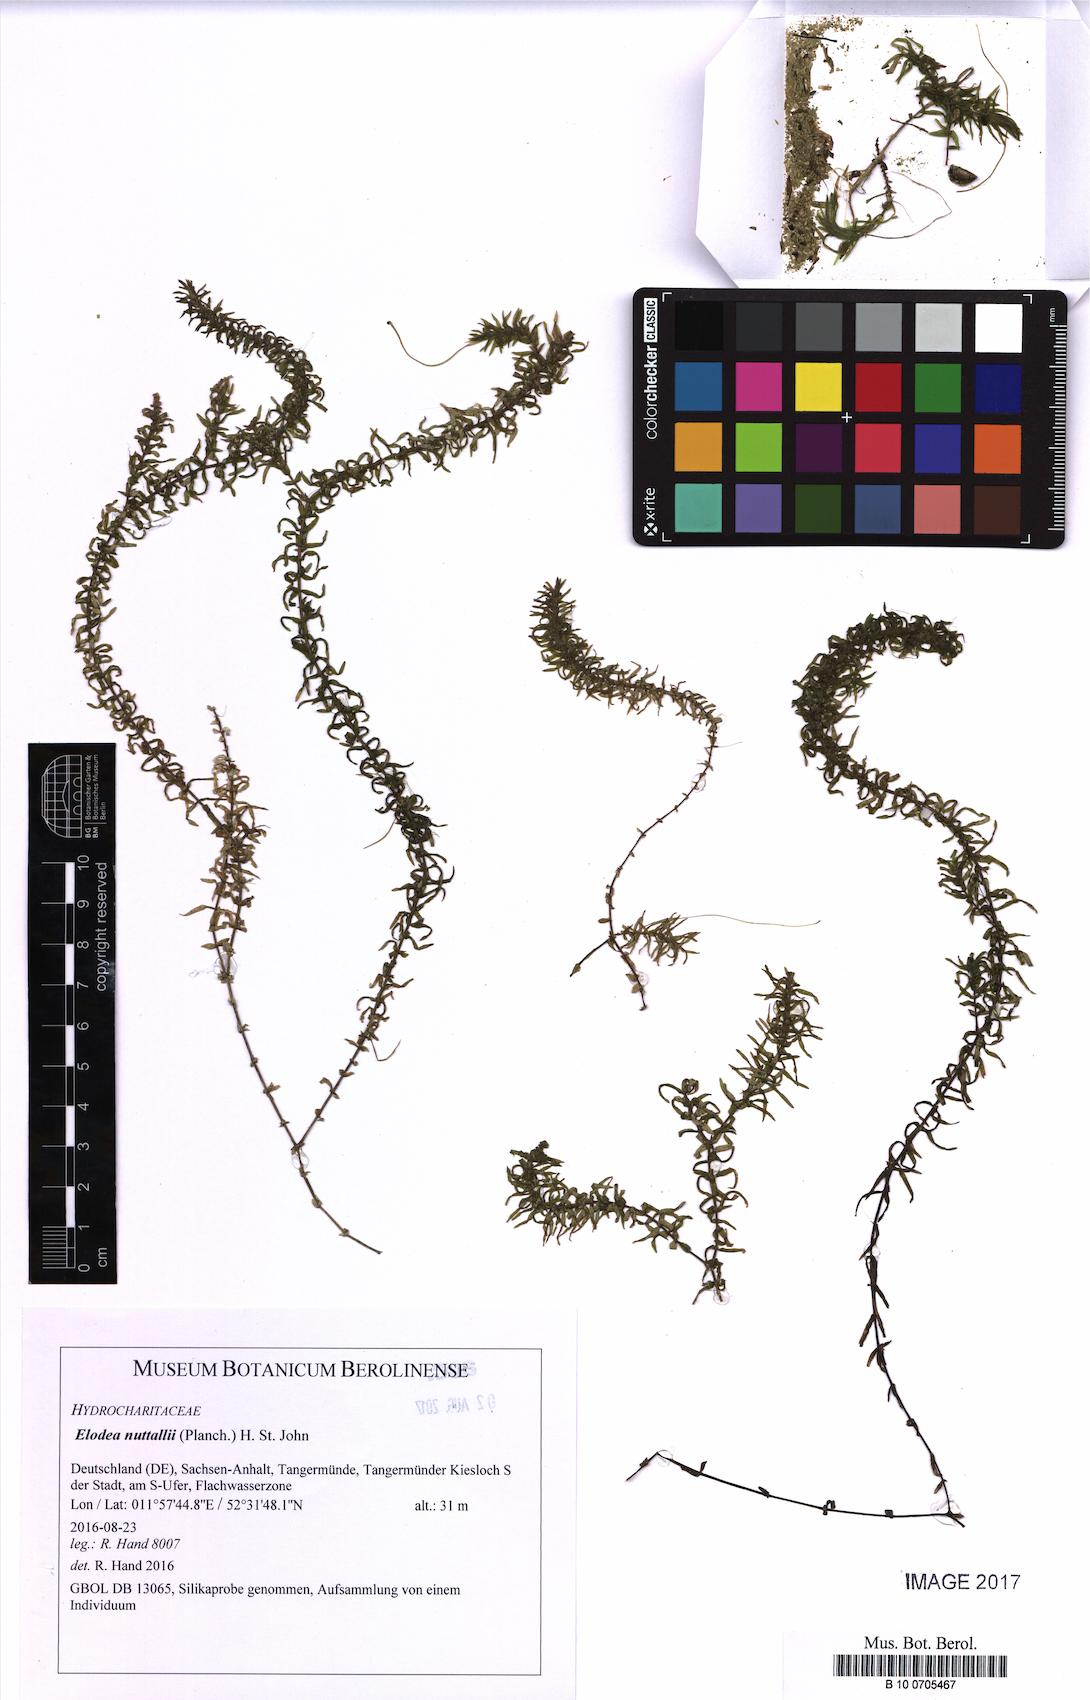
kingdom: Plantae
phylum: Tracheophyta
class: Liliopsida
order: Alismatales
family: Hydrocharitaceae
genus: Elodea
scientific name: Elodea nuttallii
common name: Nuttall's waterweed
